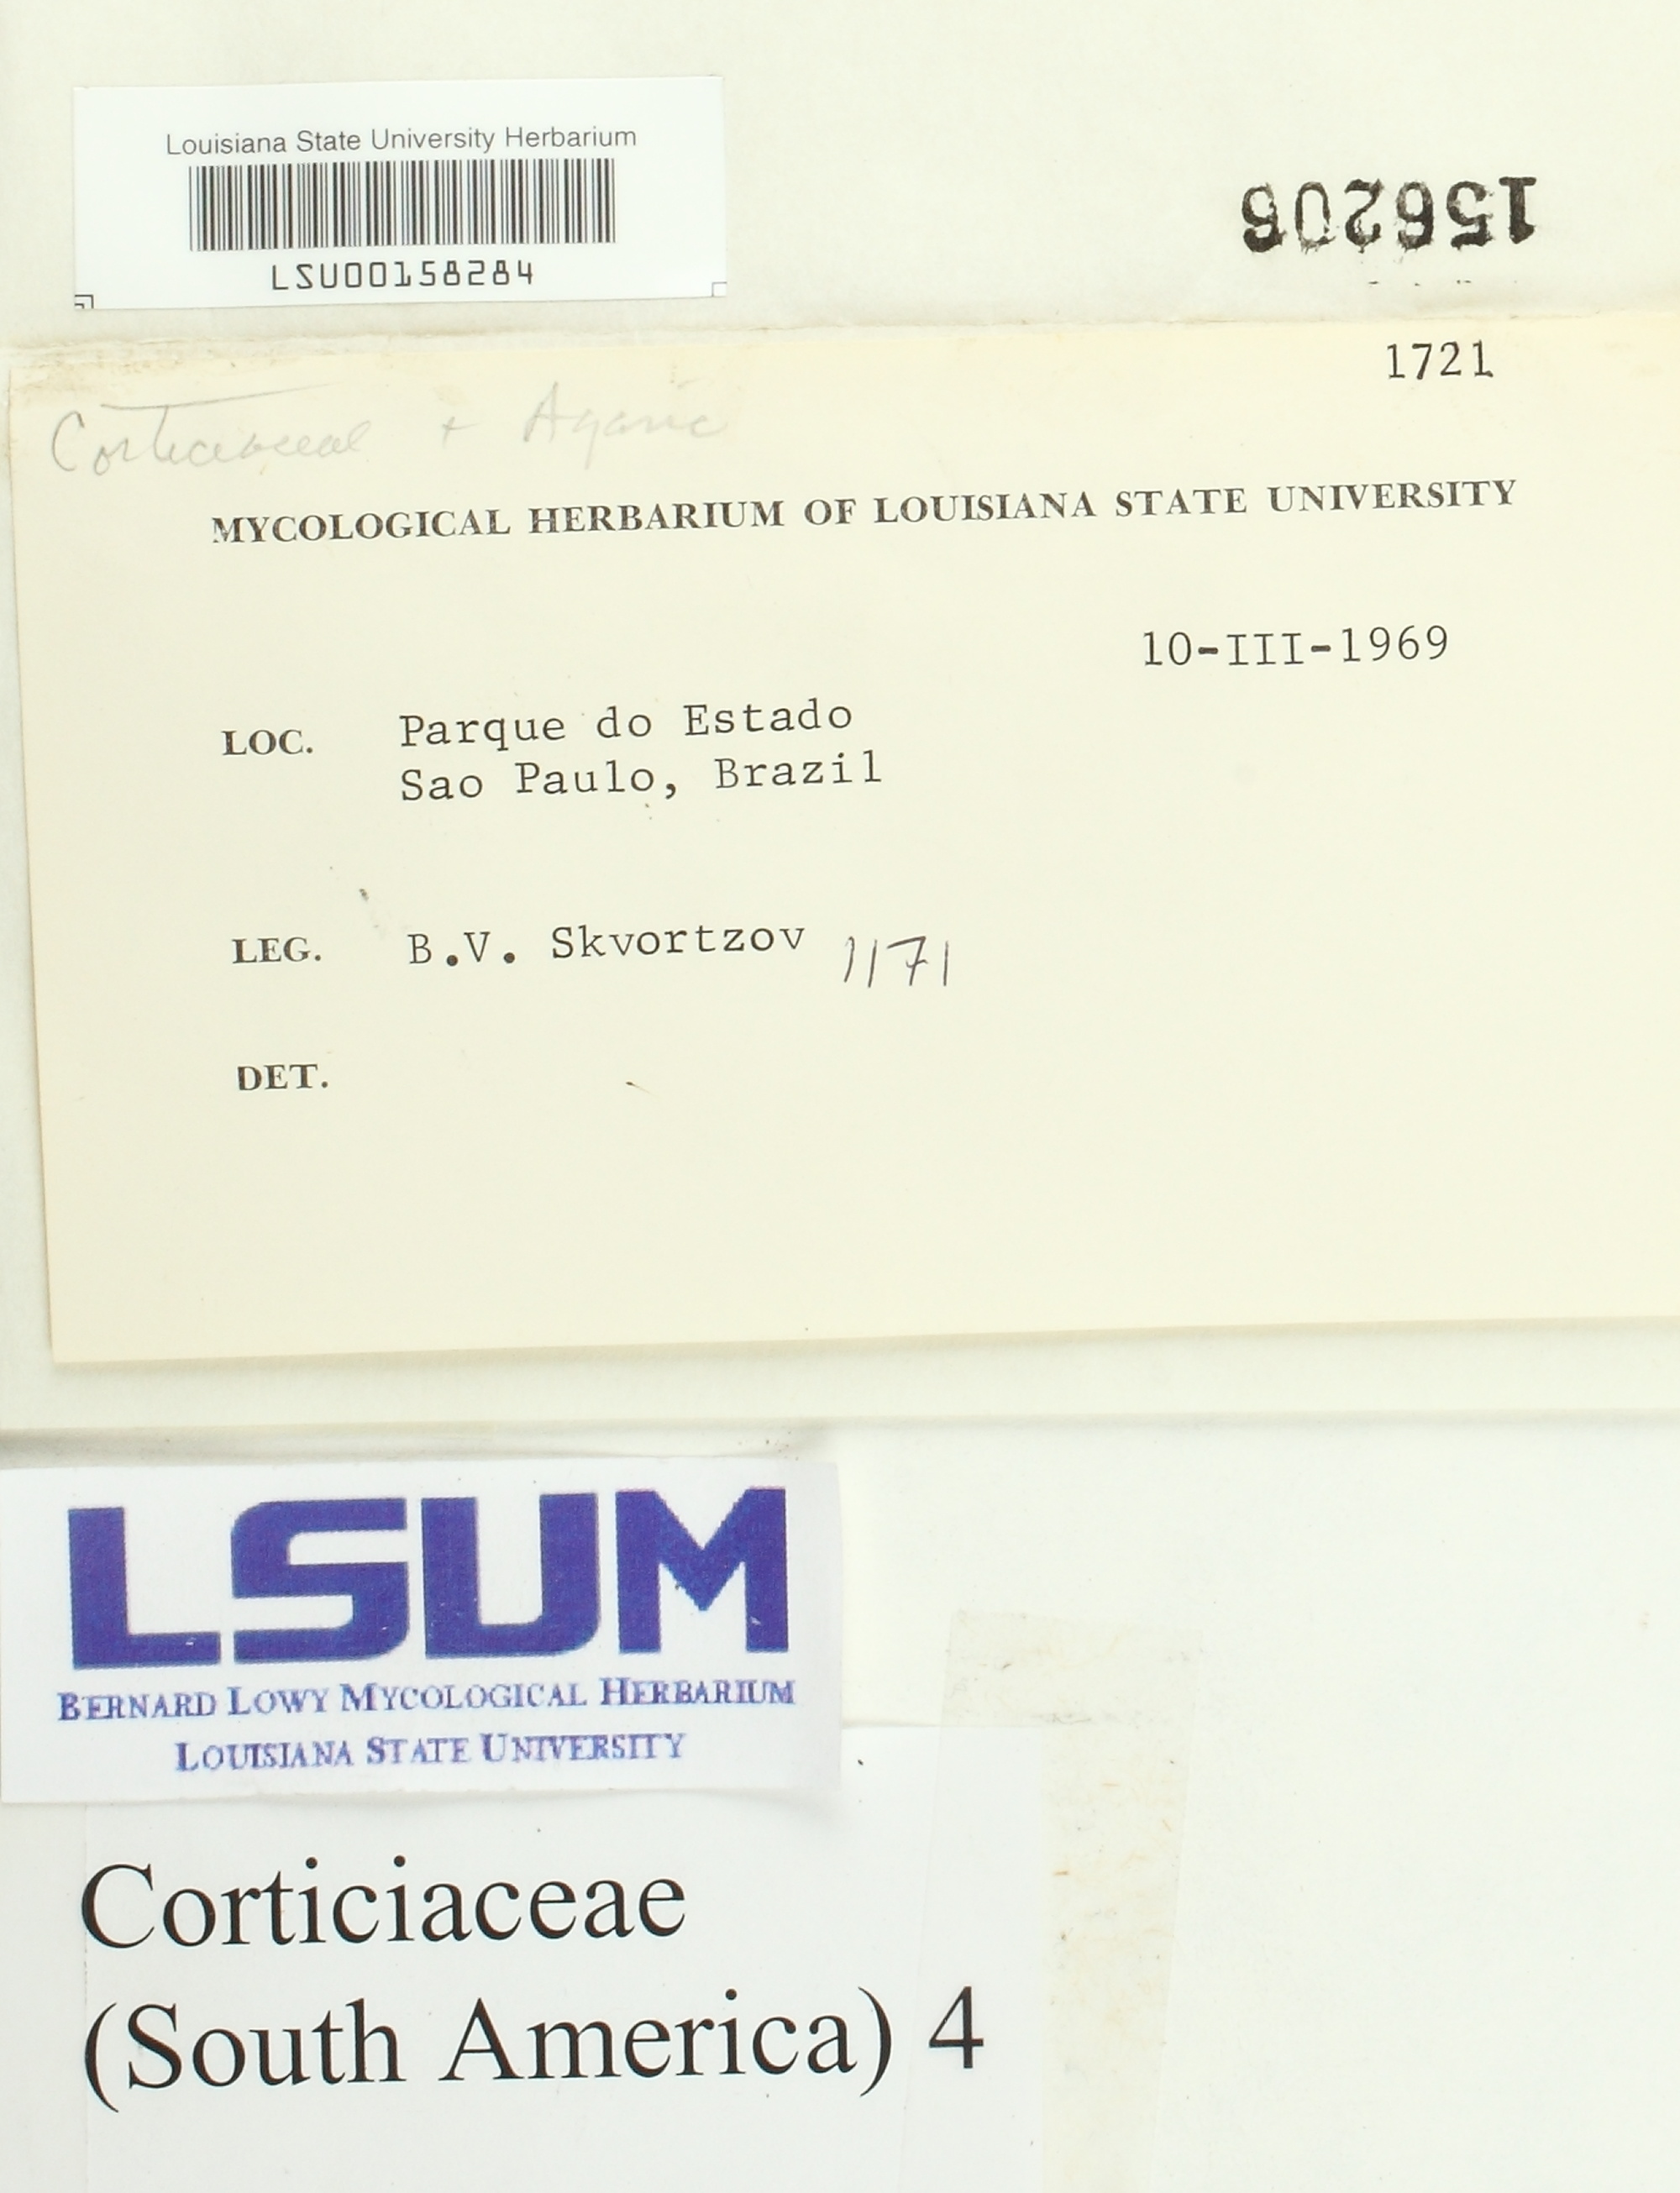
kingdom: Fungi
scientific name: Fungi
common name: Fungi
